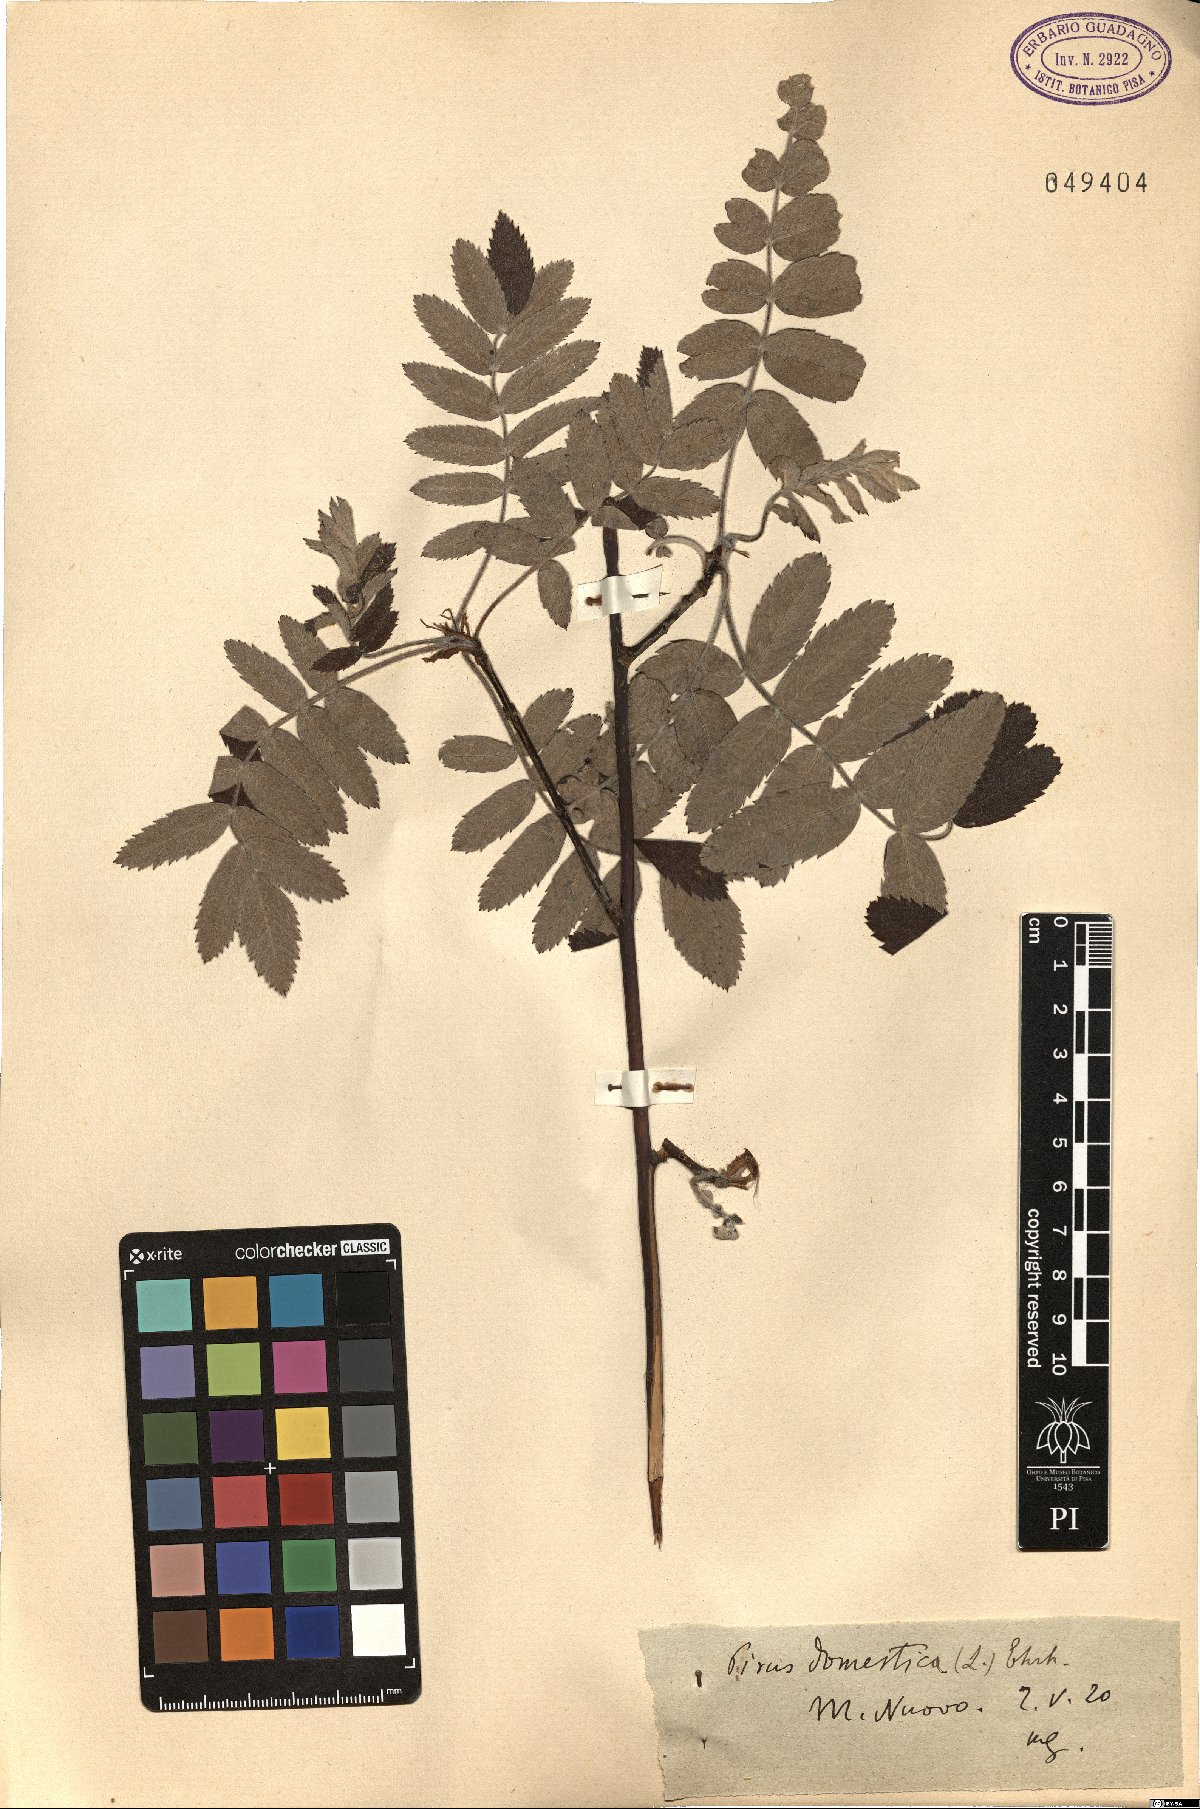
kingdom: Plantae
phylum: Tracheophyta
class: Magnoliopsida
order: Rosales
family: Rosaceae
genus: Cormus
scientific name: Cormus domestica
